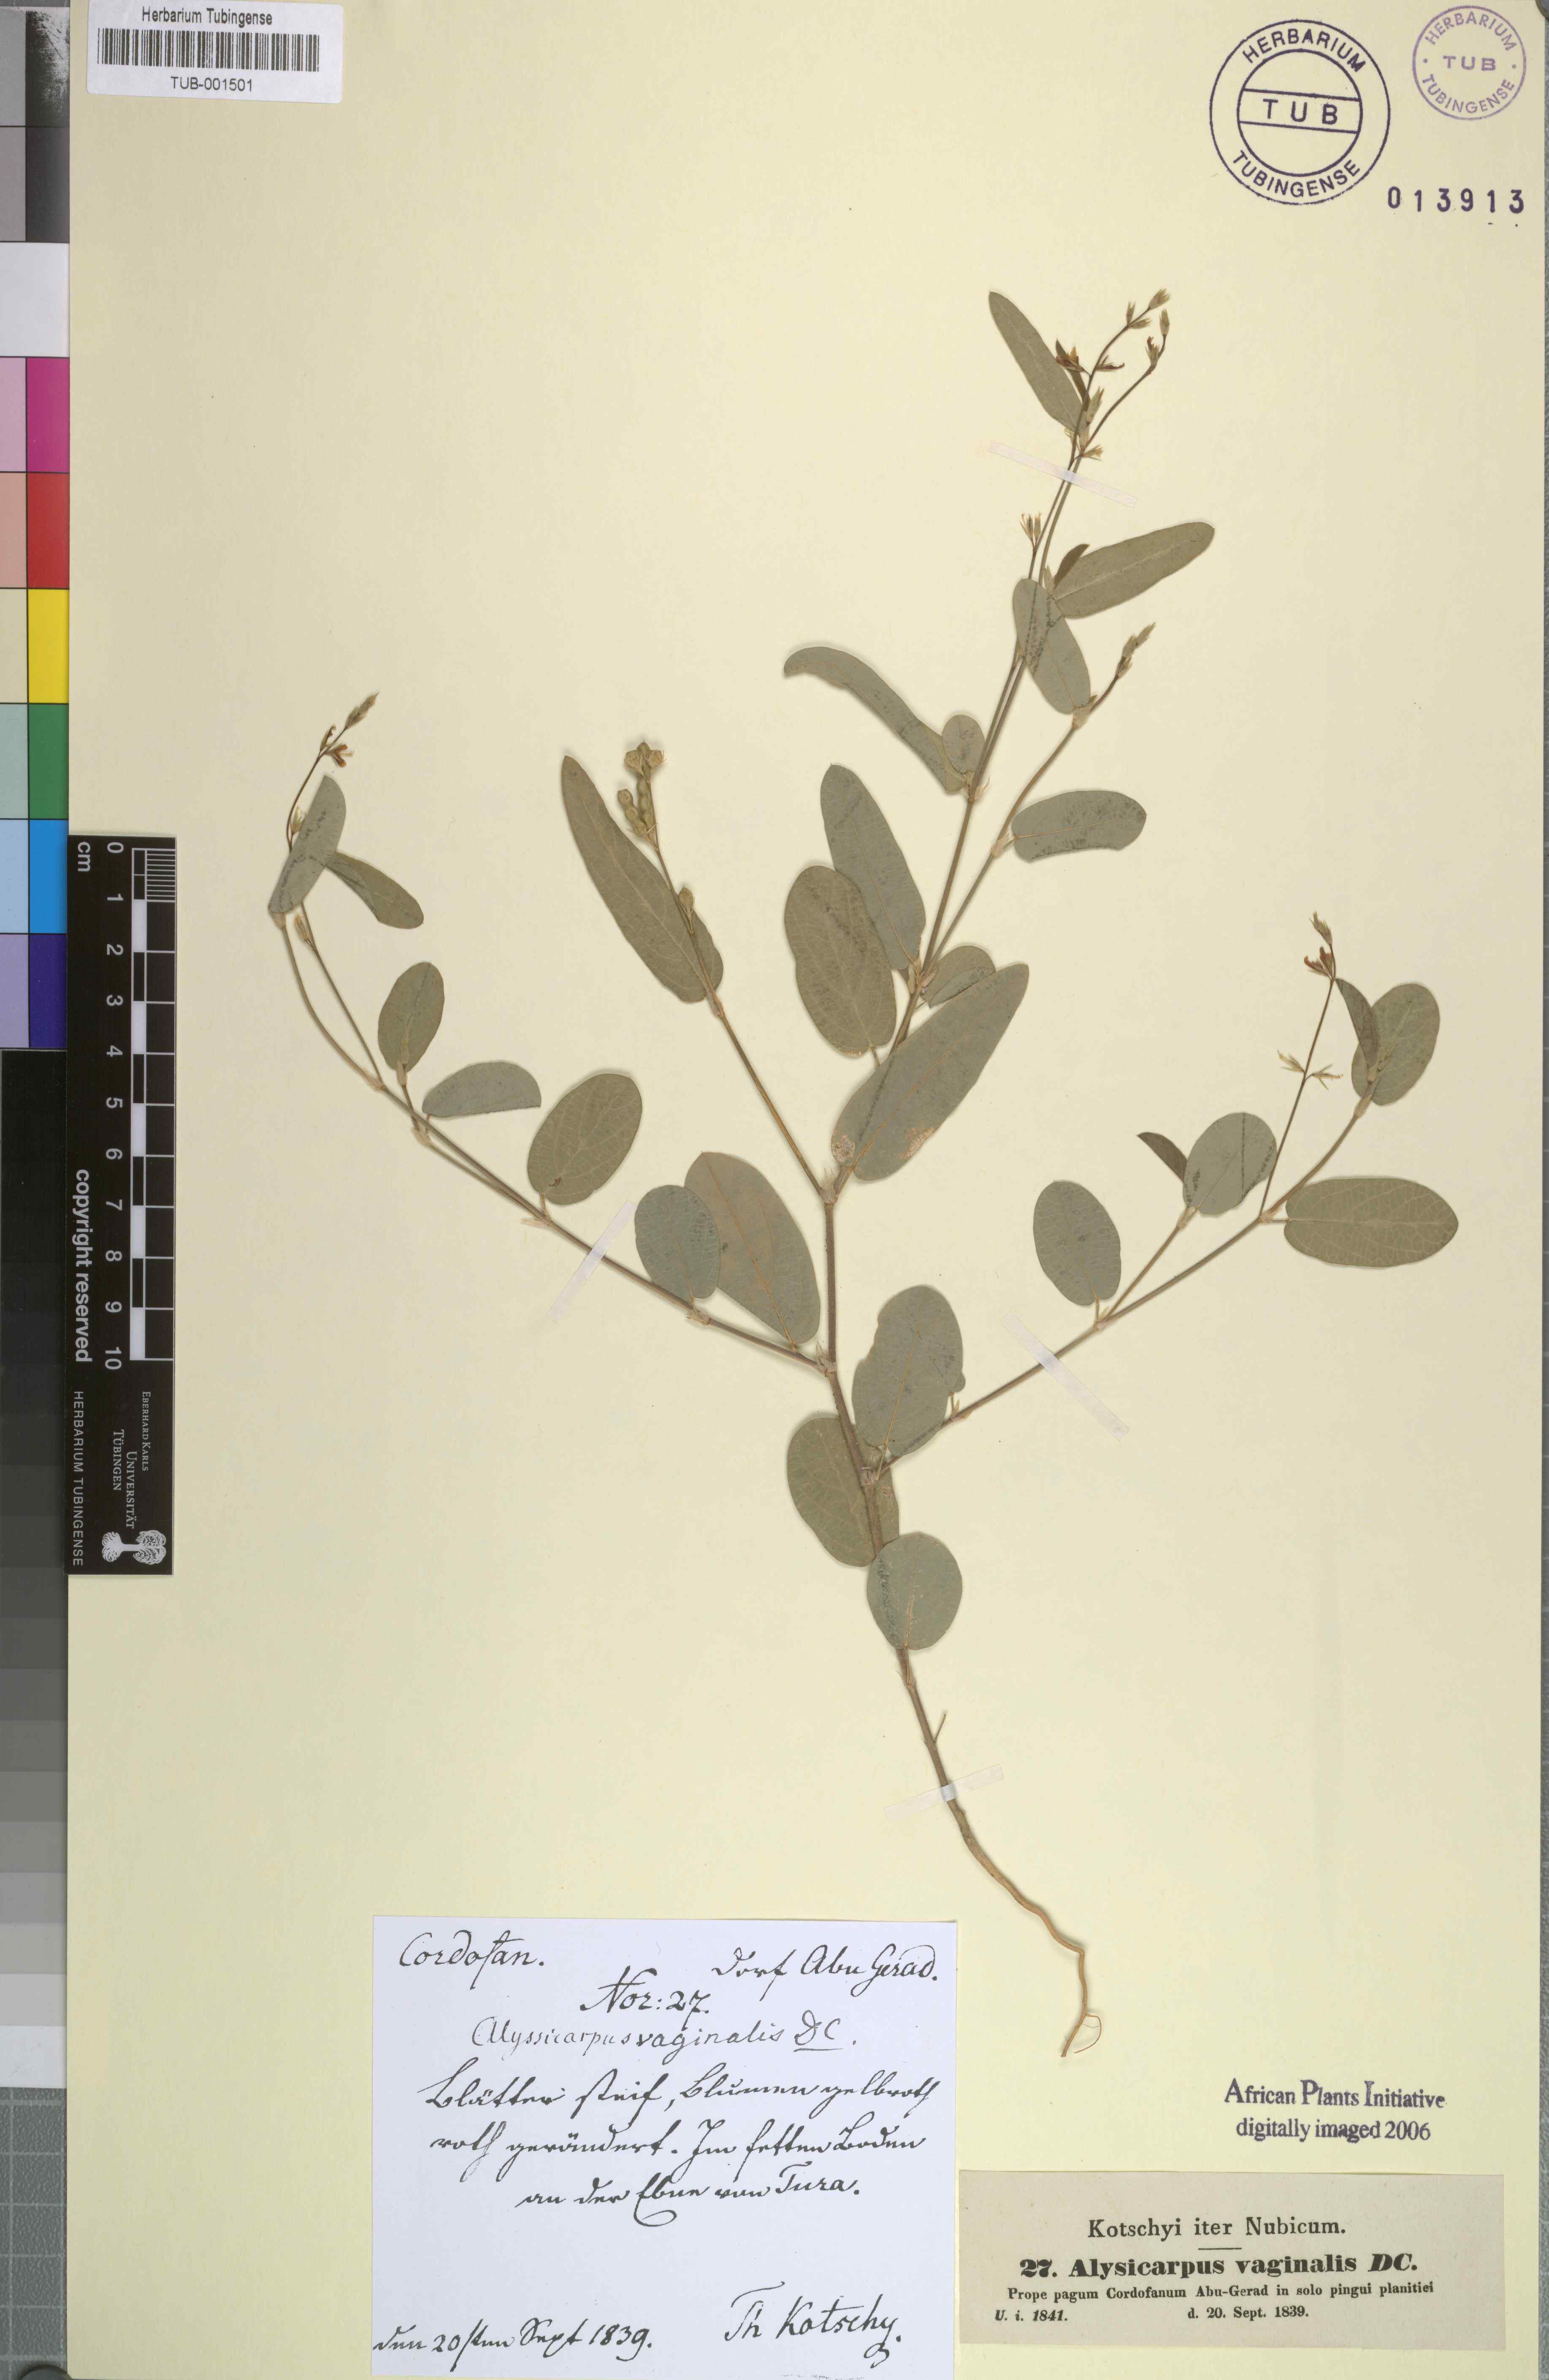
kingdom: Plantae
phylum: Tracheophyta
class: Magnoliopsida
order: Fabales
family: Fabaceae
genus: Alysicarpus
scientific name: Alysicarpus vaginalis
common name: White moneywort
